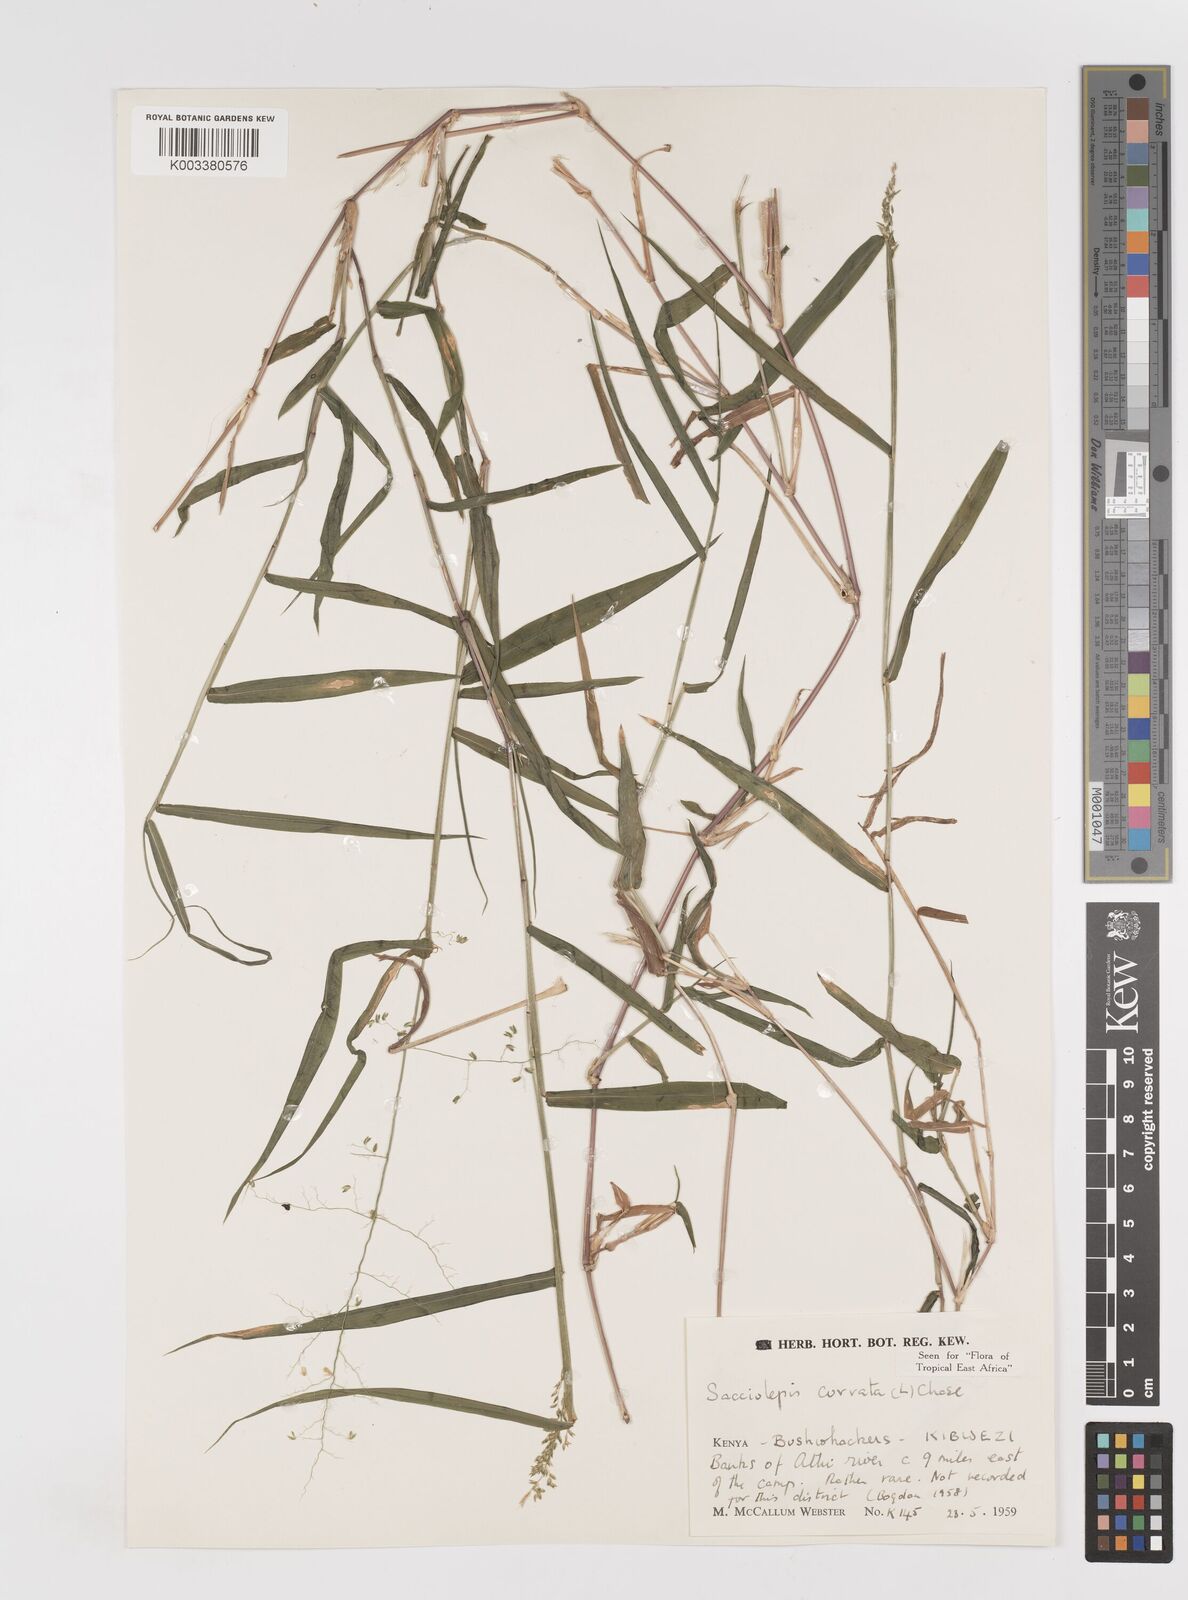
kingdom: Plantae
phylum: Tracheophyta
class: Liliopsida
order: Poales
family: Poaceae
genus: Sacciolepis
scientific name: Sacciolepis curvata
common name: Forest hood grass
